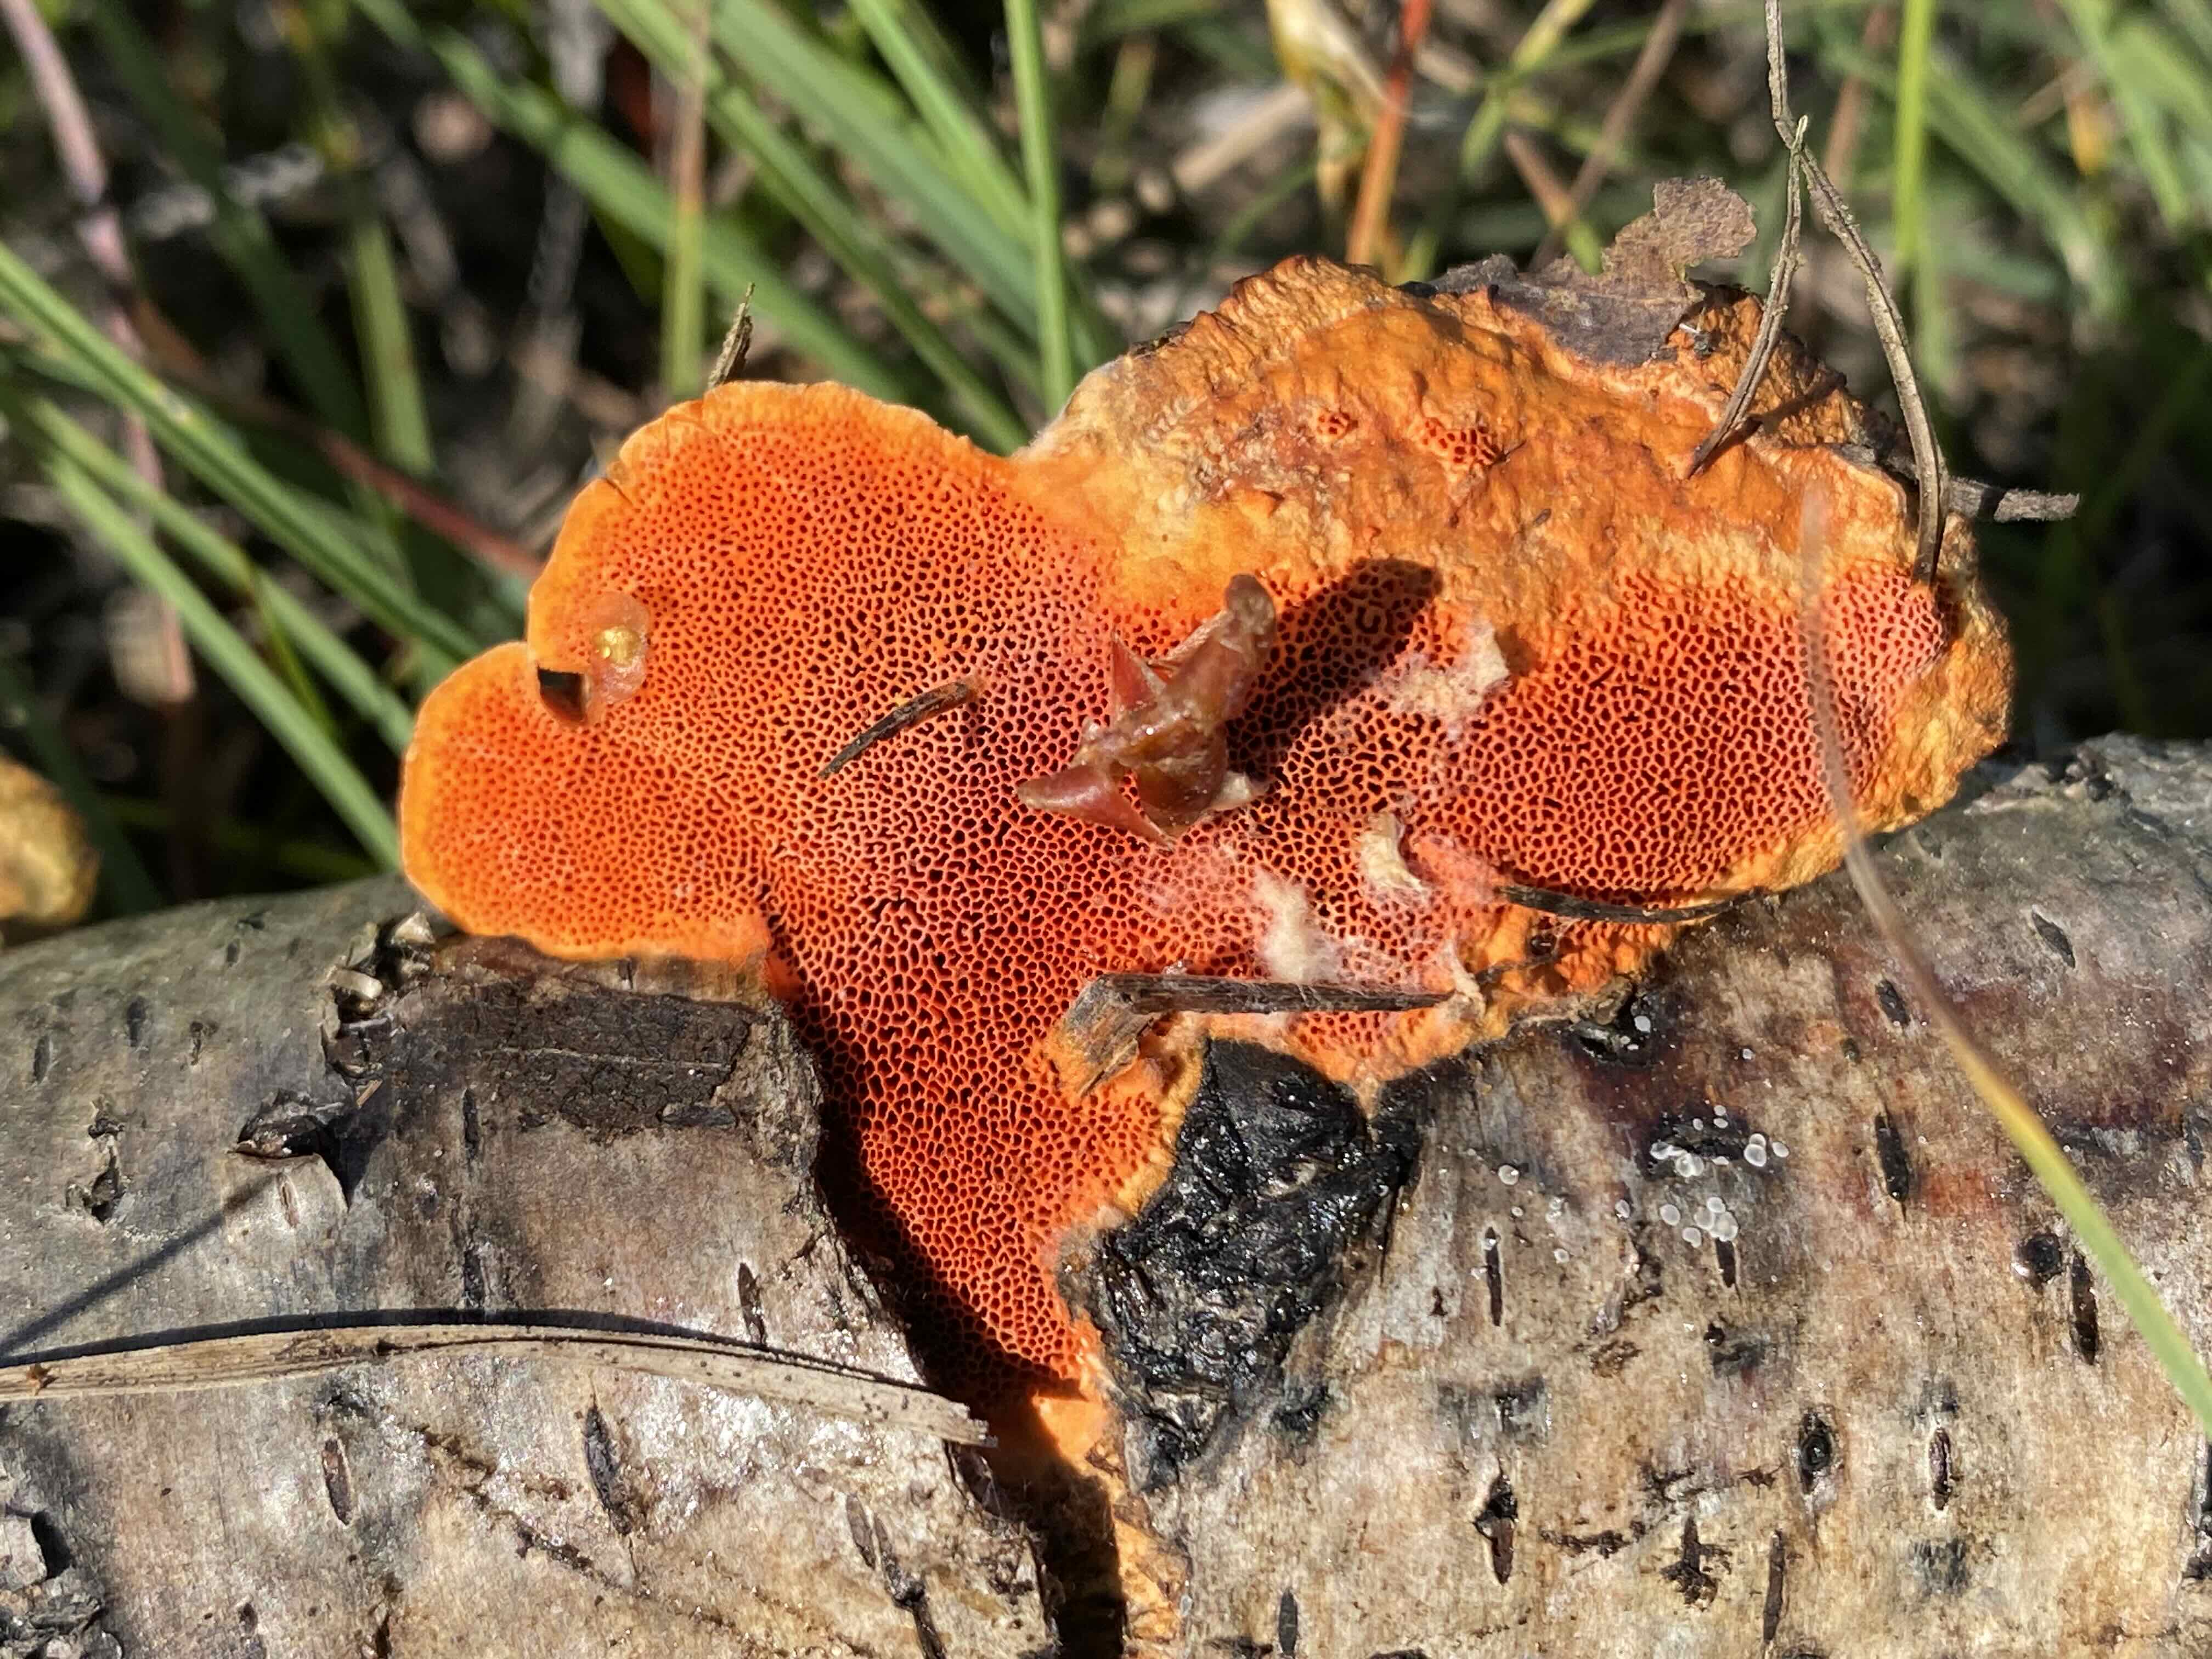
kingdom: Fungi
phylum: Basidiomycota
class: Agaricomycetes
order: Polyporales
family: Polyporaceae
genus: Trametes
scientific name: Trametes cinnabarina
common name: cinnoberporesvamp
